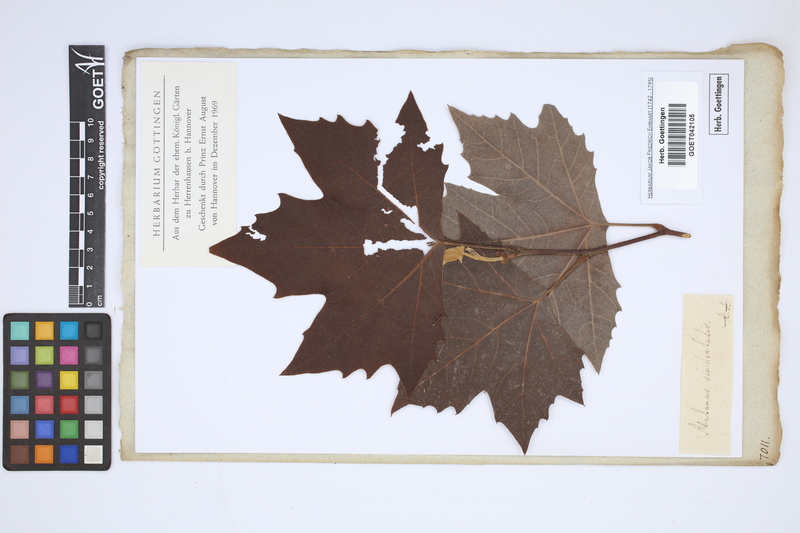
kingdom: Plantae
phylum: Tracheophyta
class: Magnoliopsida
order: Proteales
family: Platanaceae
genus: Platanus
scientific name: Platanus occidentalis
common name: American sycamore
